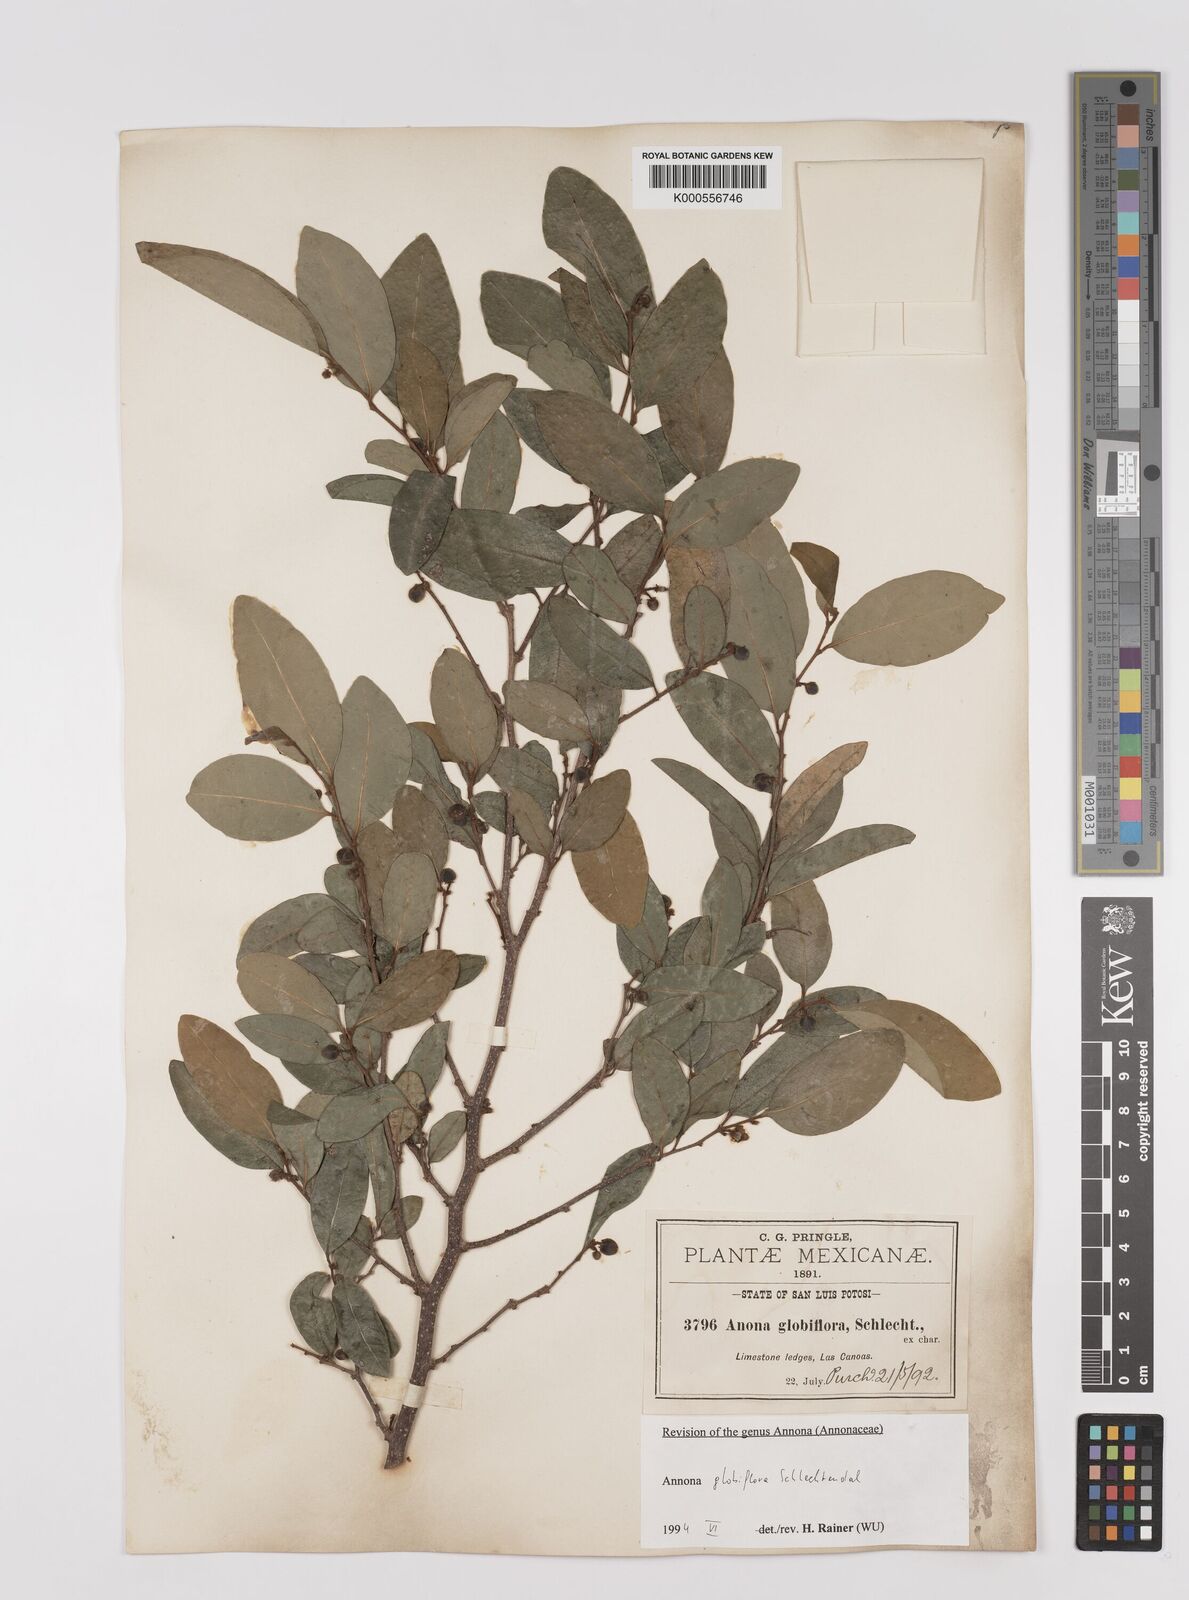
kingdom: Plantae
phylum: Tracheophyta
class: Magnoliopsida
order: Magnoliales
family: Annonaceae
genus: Annona
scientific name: Annona globiflora
